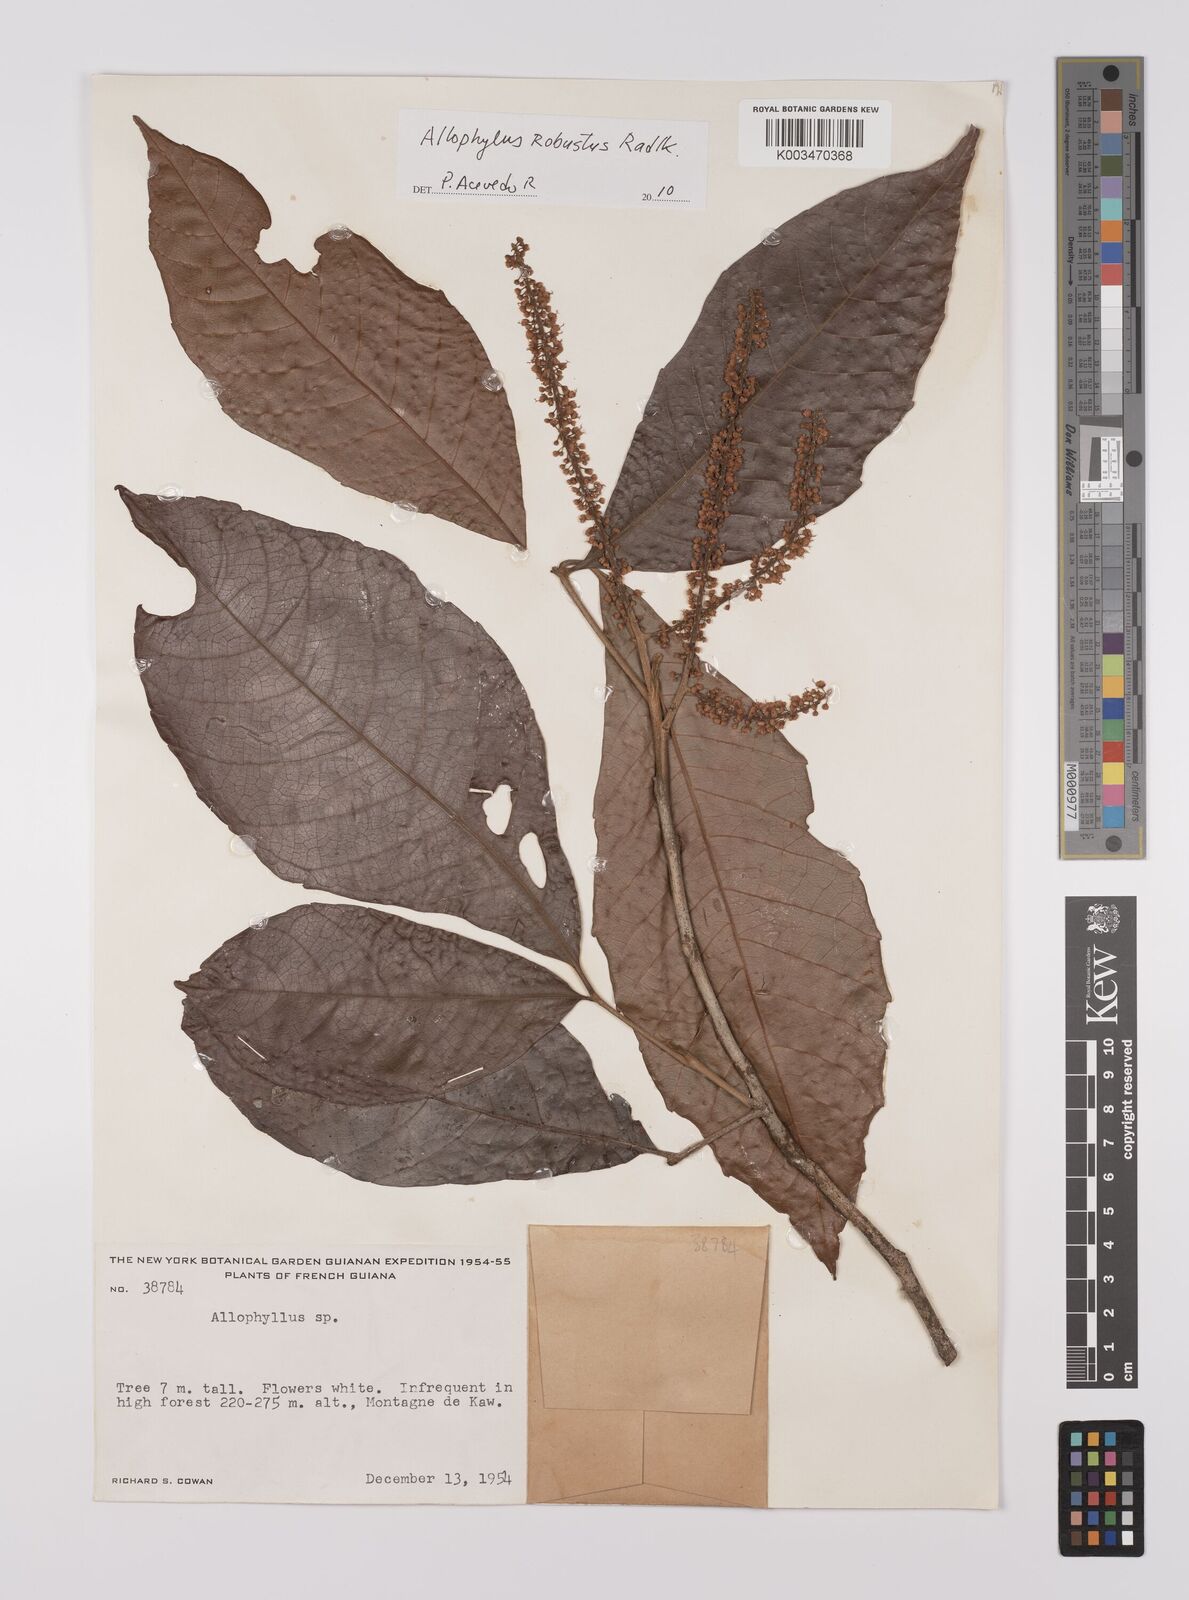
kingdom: Plantae
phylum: Tracheophyta
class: Magnoliopsida
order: Sapindales
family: Sapindaceae
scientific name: Sapindaceae
